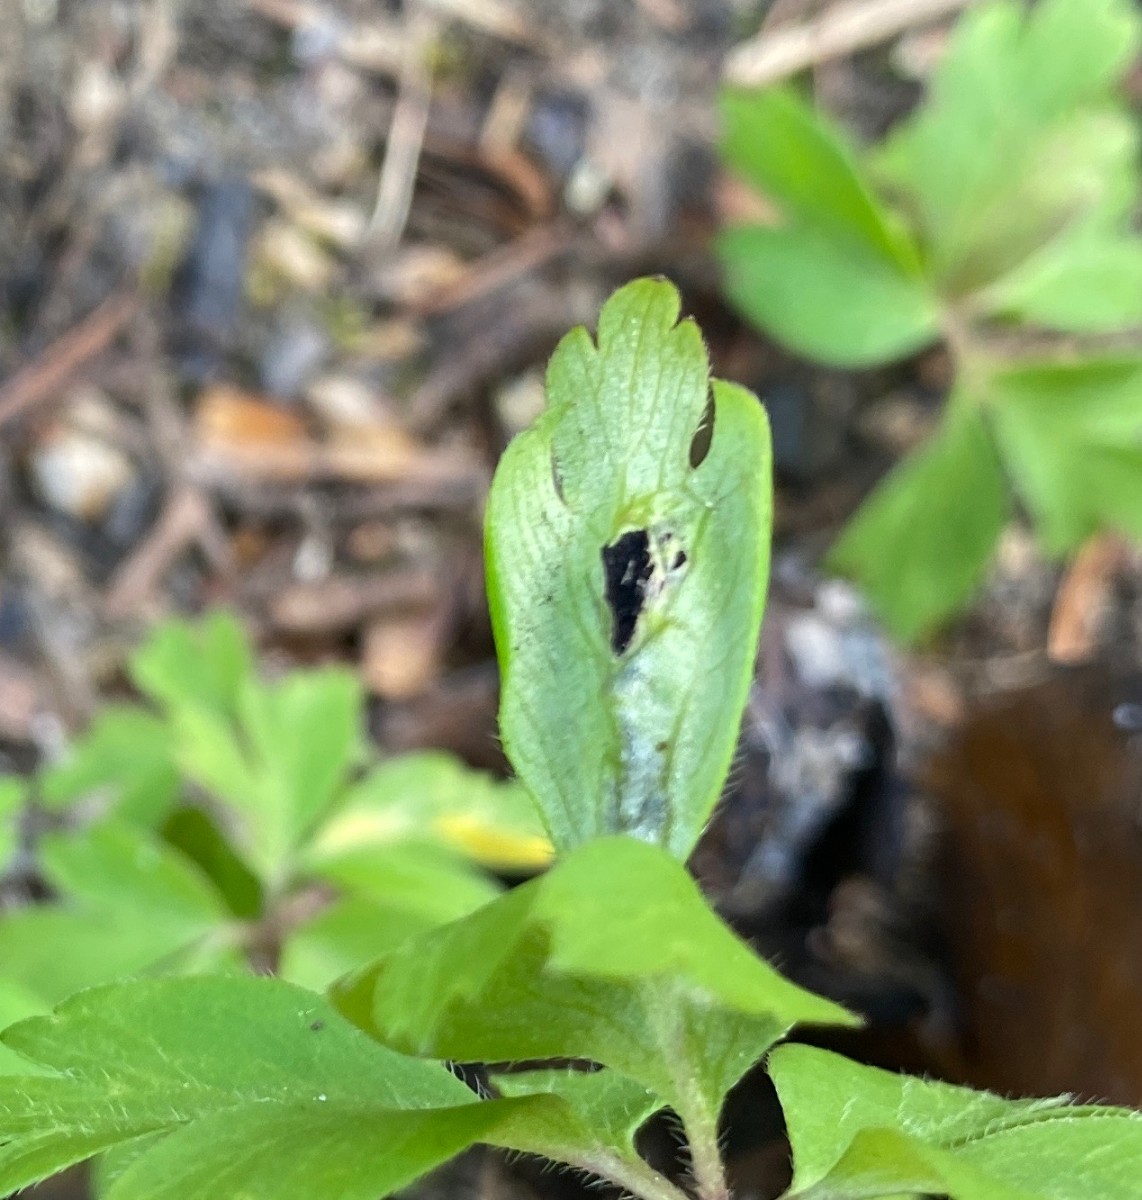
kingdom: Fungi
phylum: Basidiomycota
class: Ustilaginomycetes
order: Urocystidales
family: Urocystidaceae
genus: Urocystis
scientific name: Urocystis anemones
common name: anemone-brand
